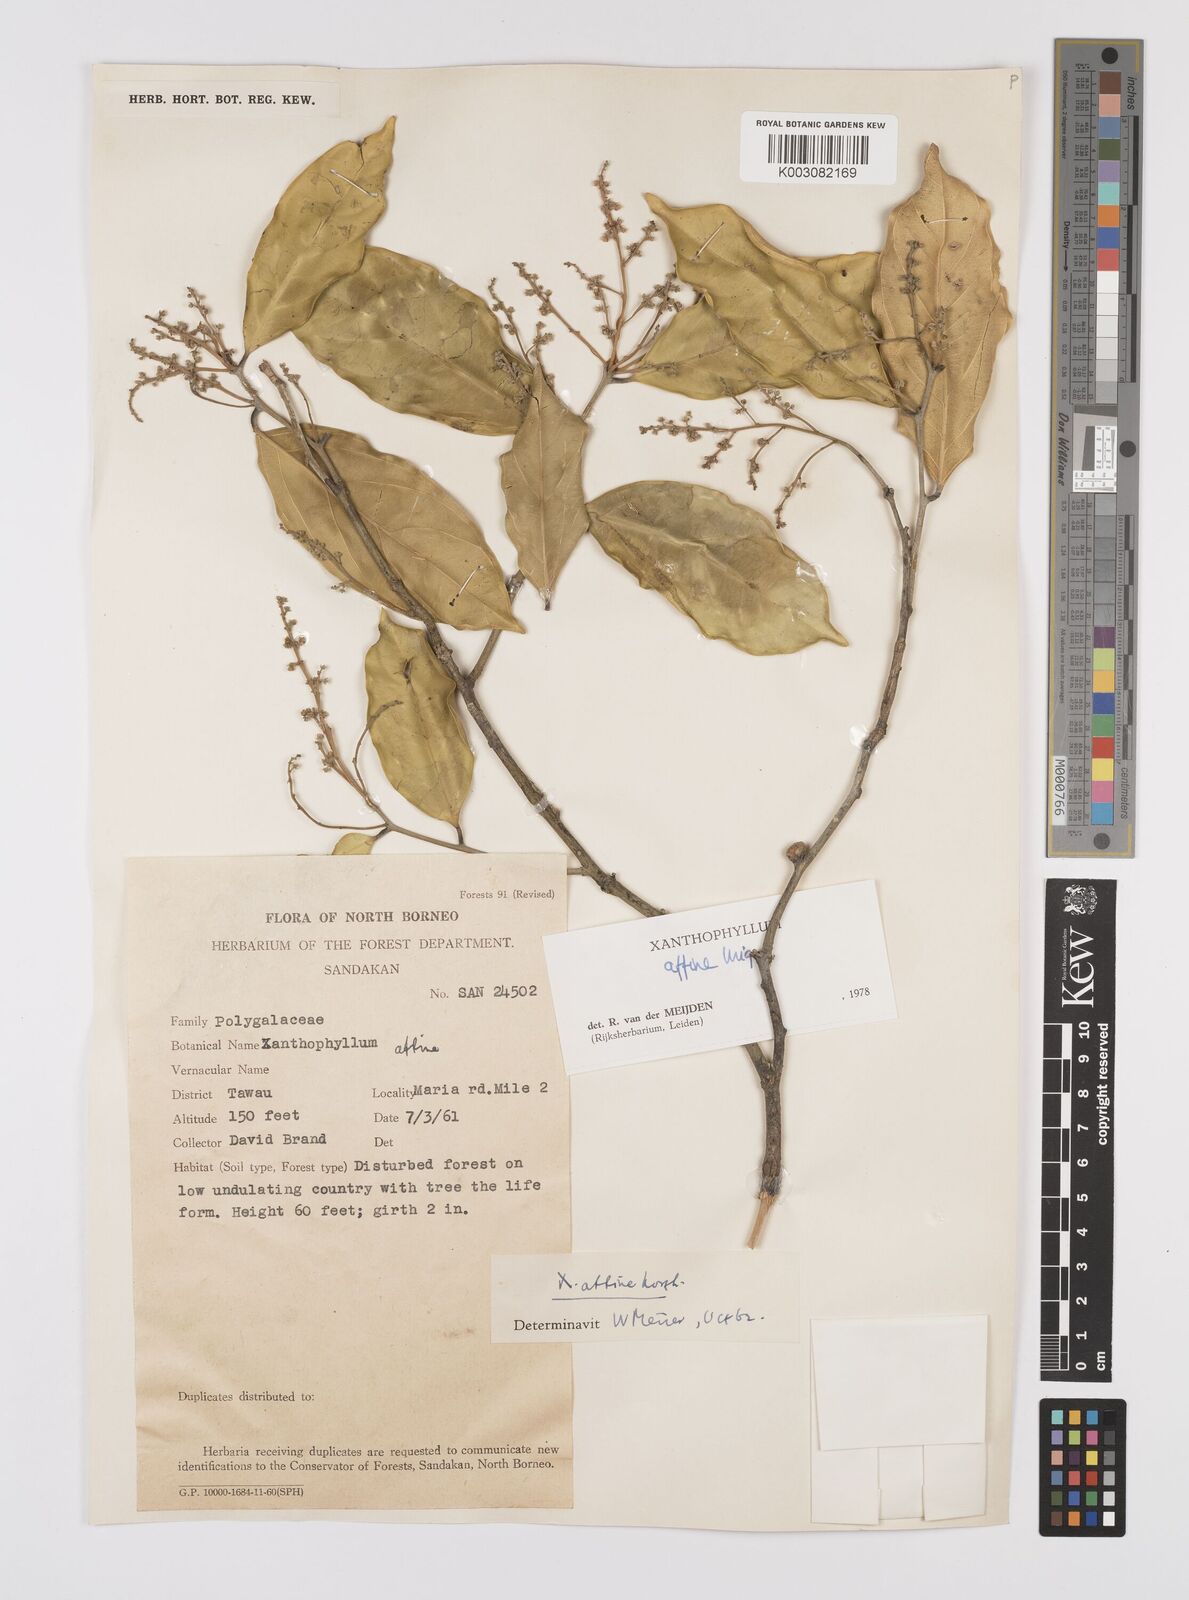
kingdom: Plantae
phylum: Tracheophyta
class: Magnoliopsida
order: Fabales
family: Polygalaceae
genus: Xanthophyllum
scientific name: Xanthophyllum flavescens
